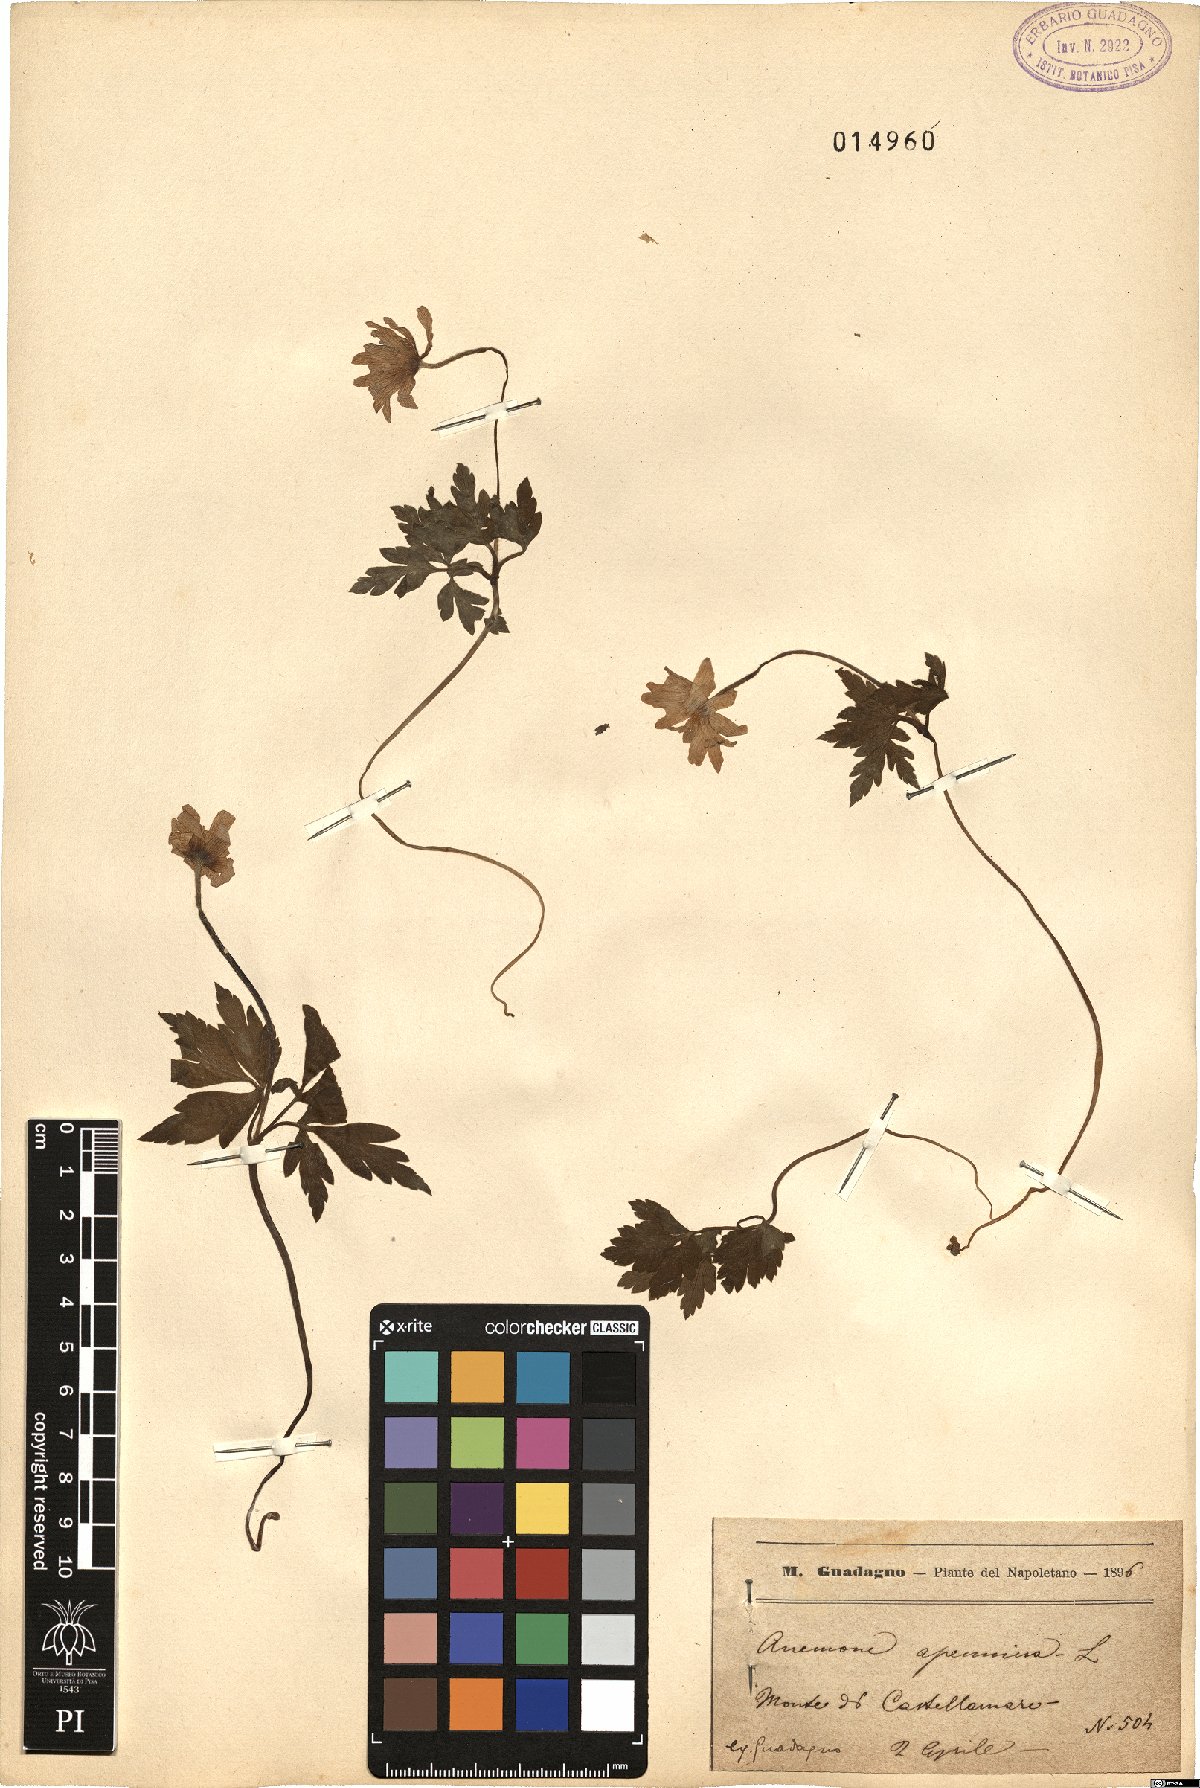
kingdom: Plantae
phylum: Tracheophyta
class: Magnoliopsida
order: Ranunculales
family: Ranunculaceae
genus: Anemone
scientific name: Anemone apennina
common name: Blue anemone
